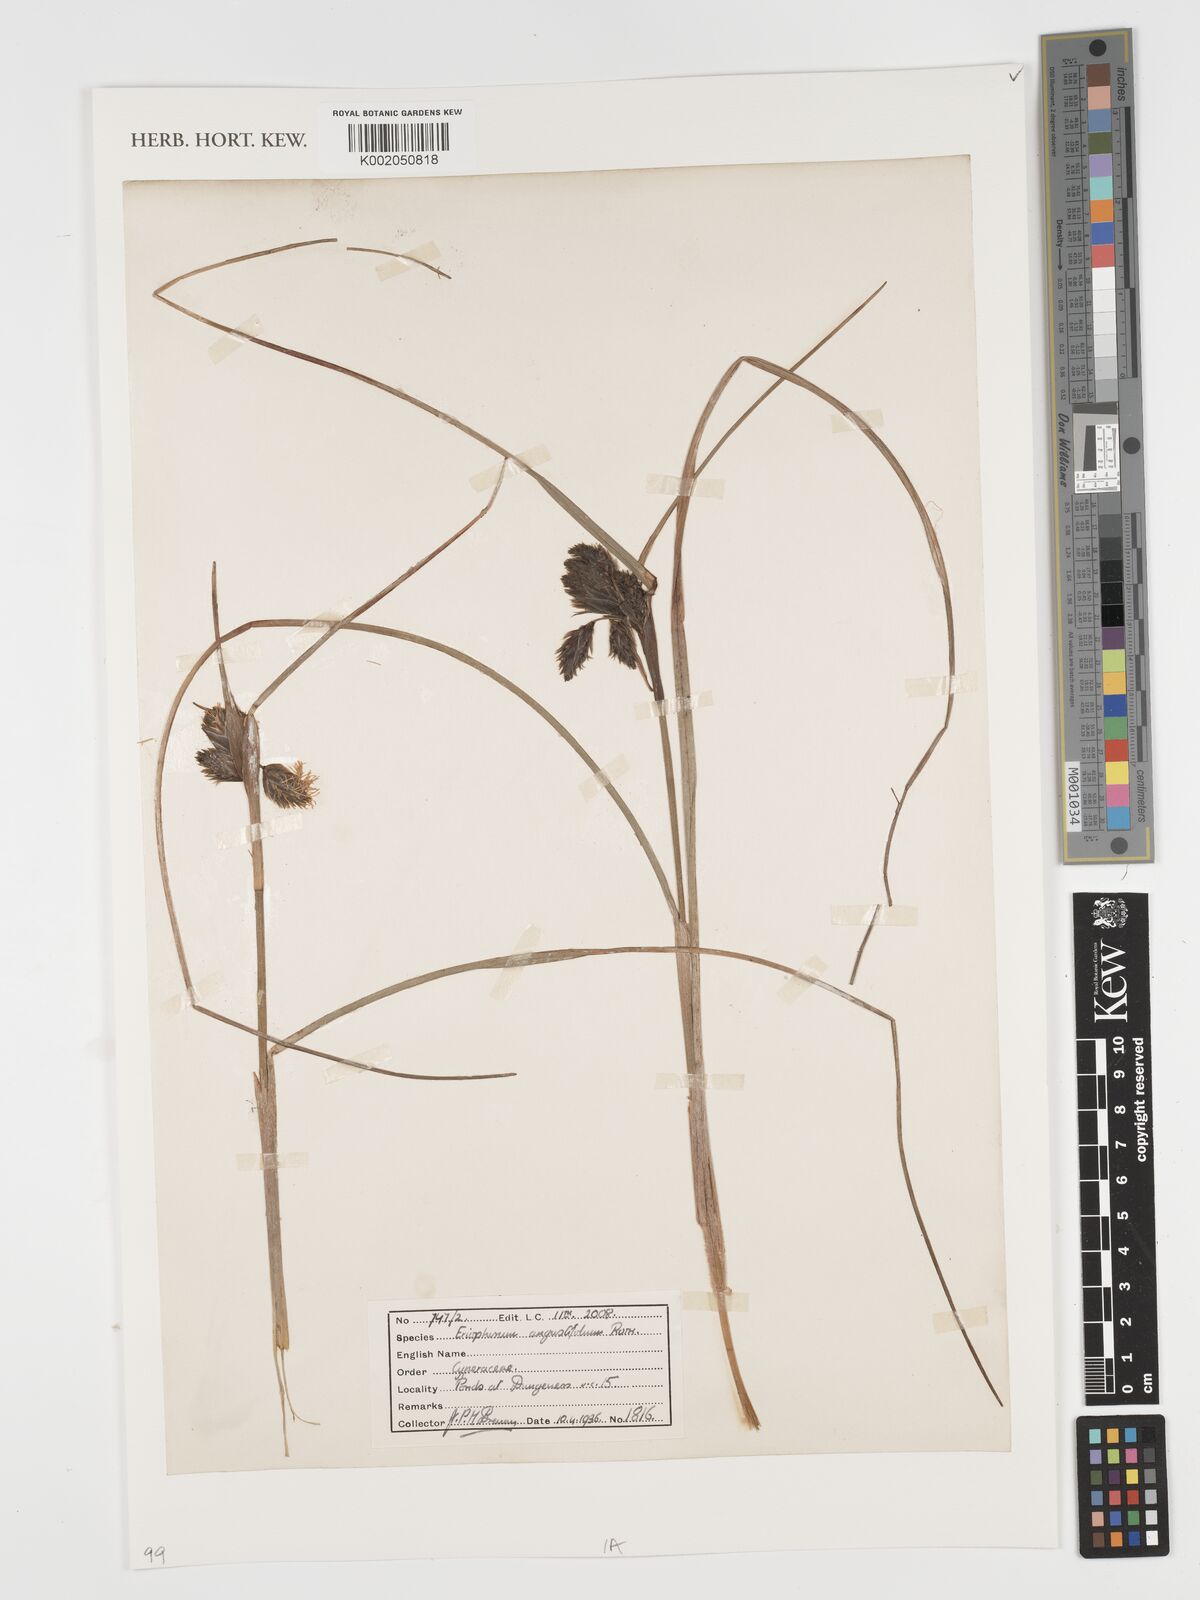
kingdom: Plantae
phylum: Tracheophyta
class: Liliopsida
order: Poales
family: Cyperaceae
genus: Eriophorum
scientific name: Eriophorum angustifolium
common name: Common cottongrass
